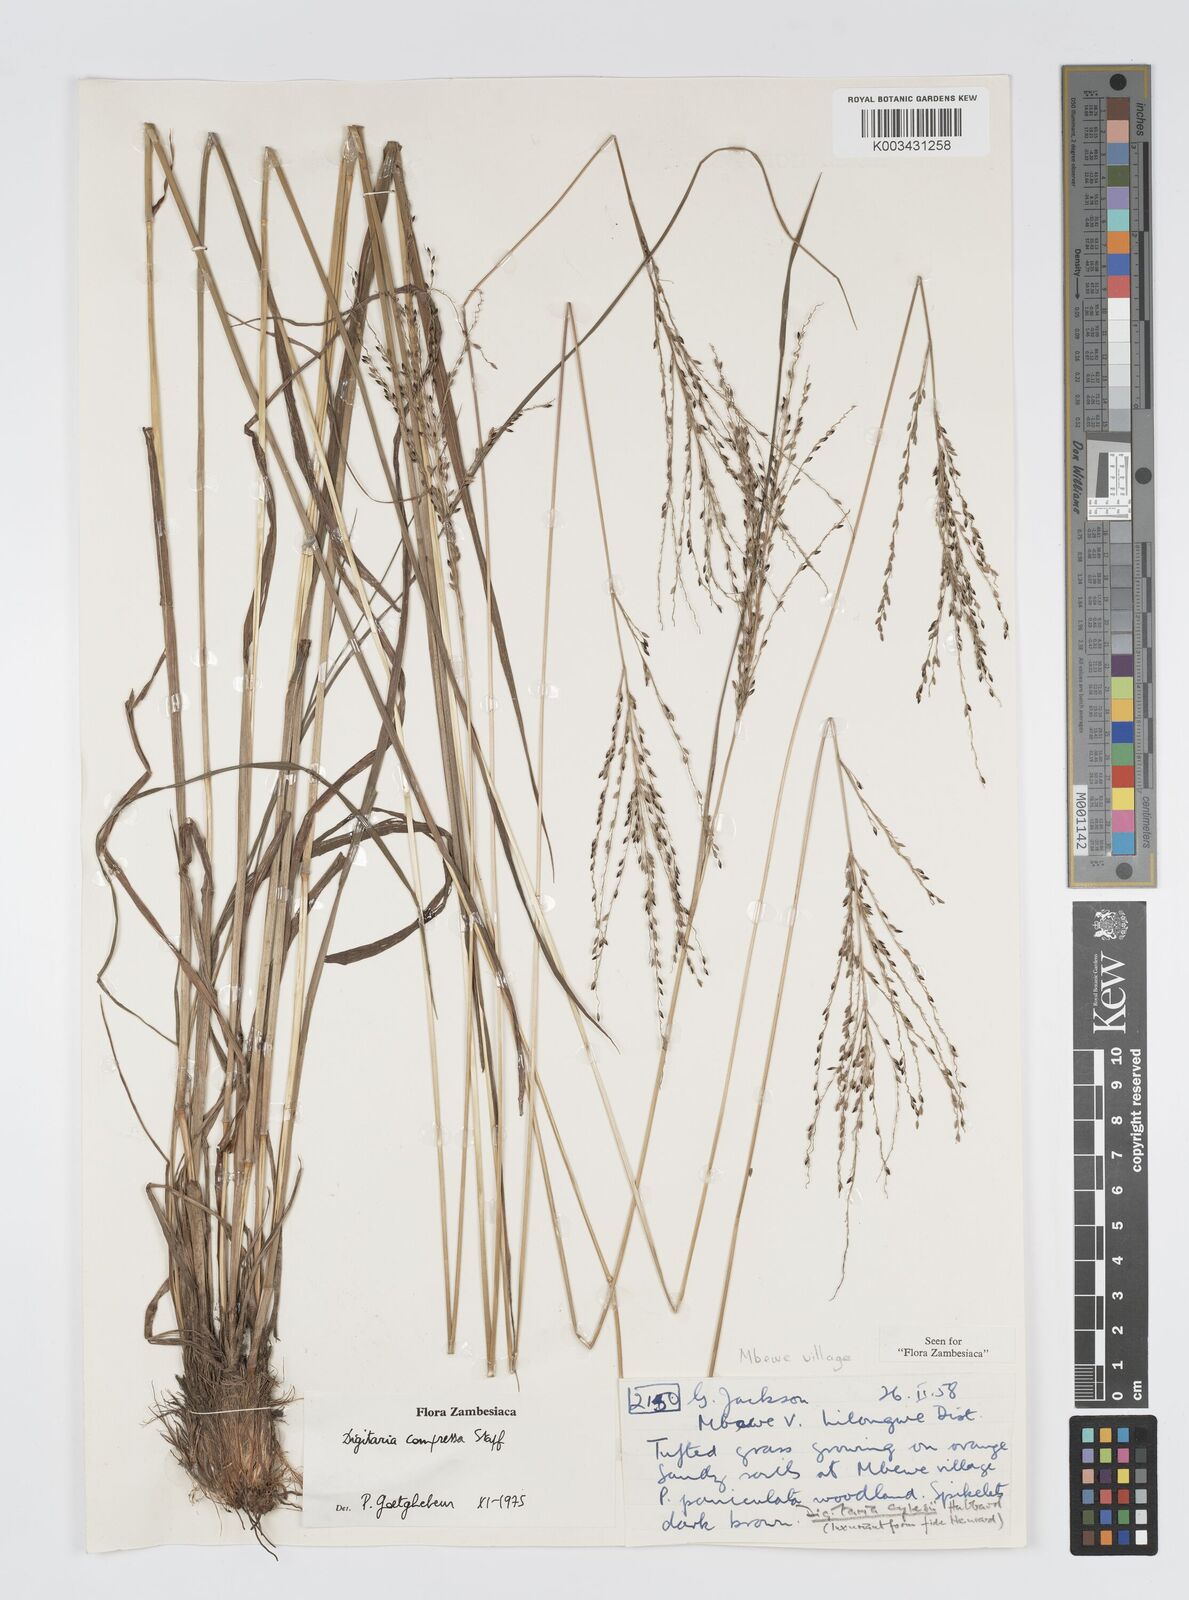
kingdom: Plantae
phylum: Tracheophyta
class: Liliopsida
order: Poales
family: Poaceae
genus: Digitaria
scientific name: Digitaria compressa
